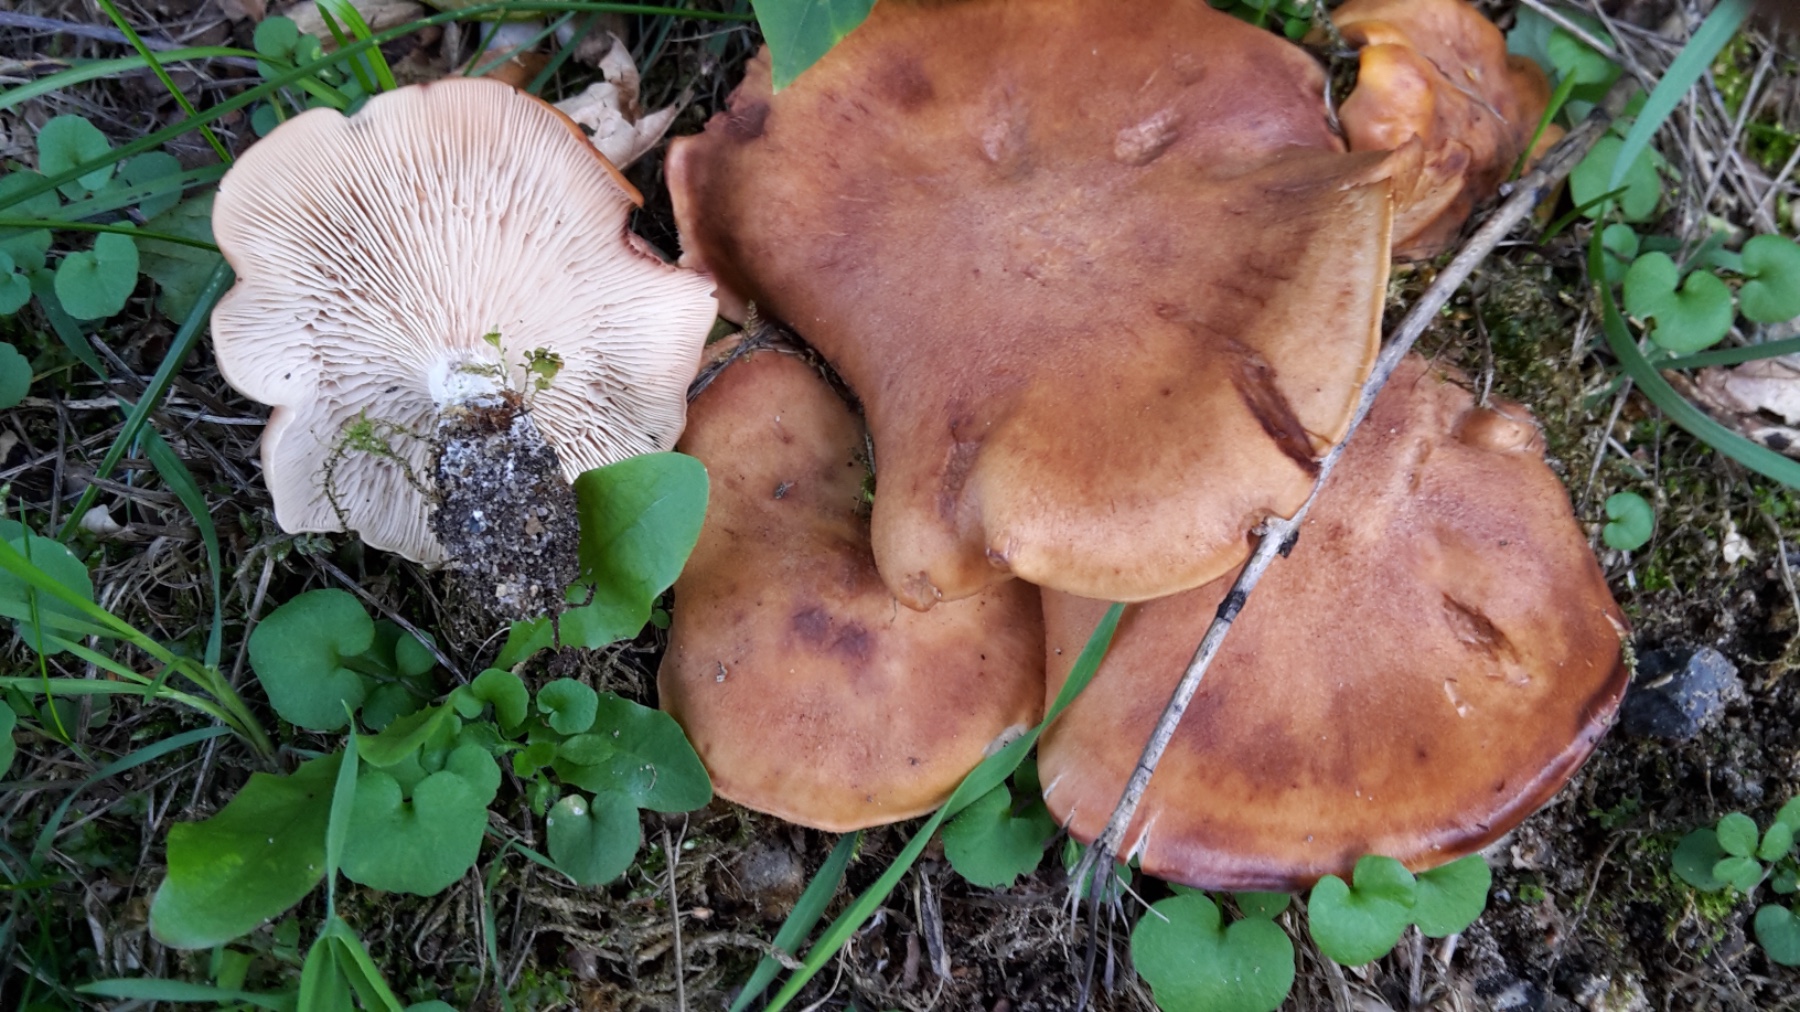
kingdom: Fungi
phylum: Basidiomycota
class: Agaricomycetes
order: Agaricales
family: Entolomataceae
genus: Clitopilus
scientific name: Clitopilus geminus
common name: kødfarvet troldhat
